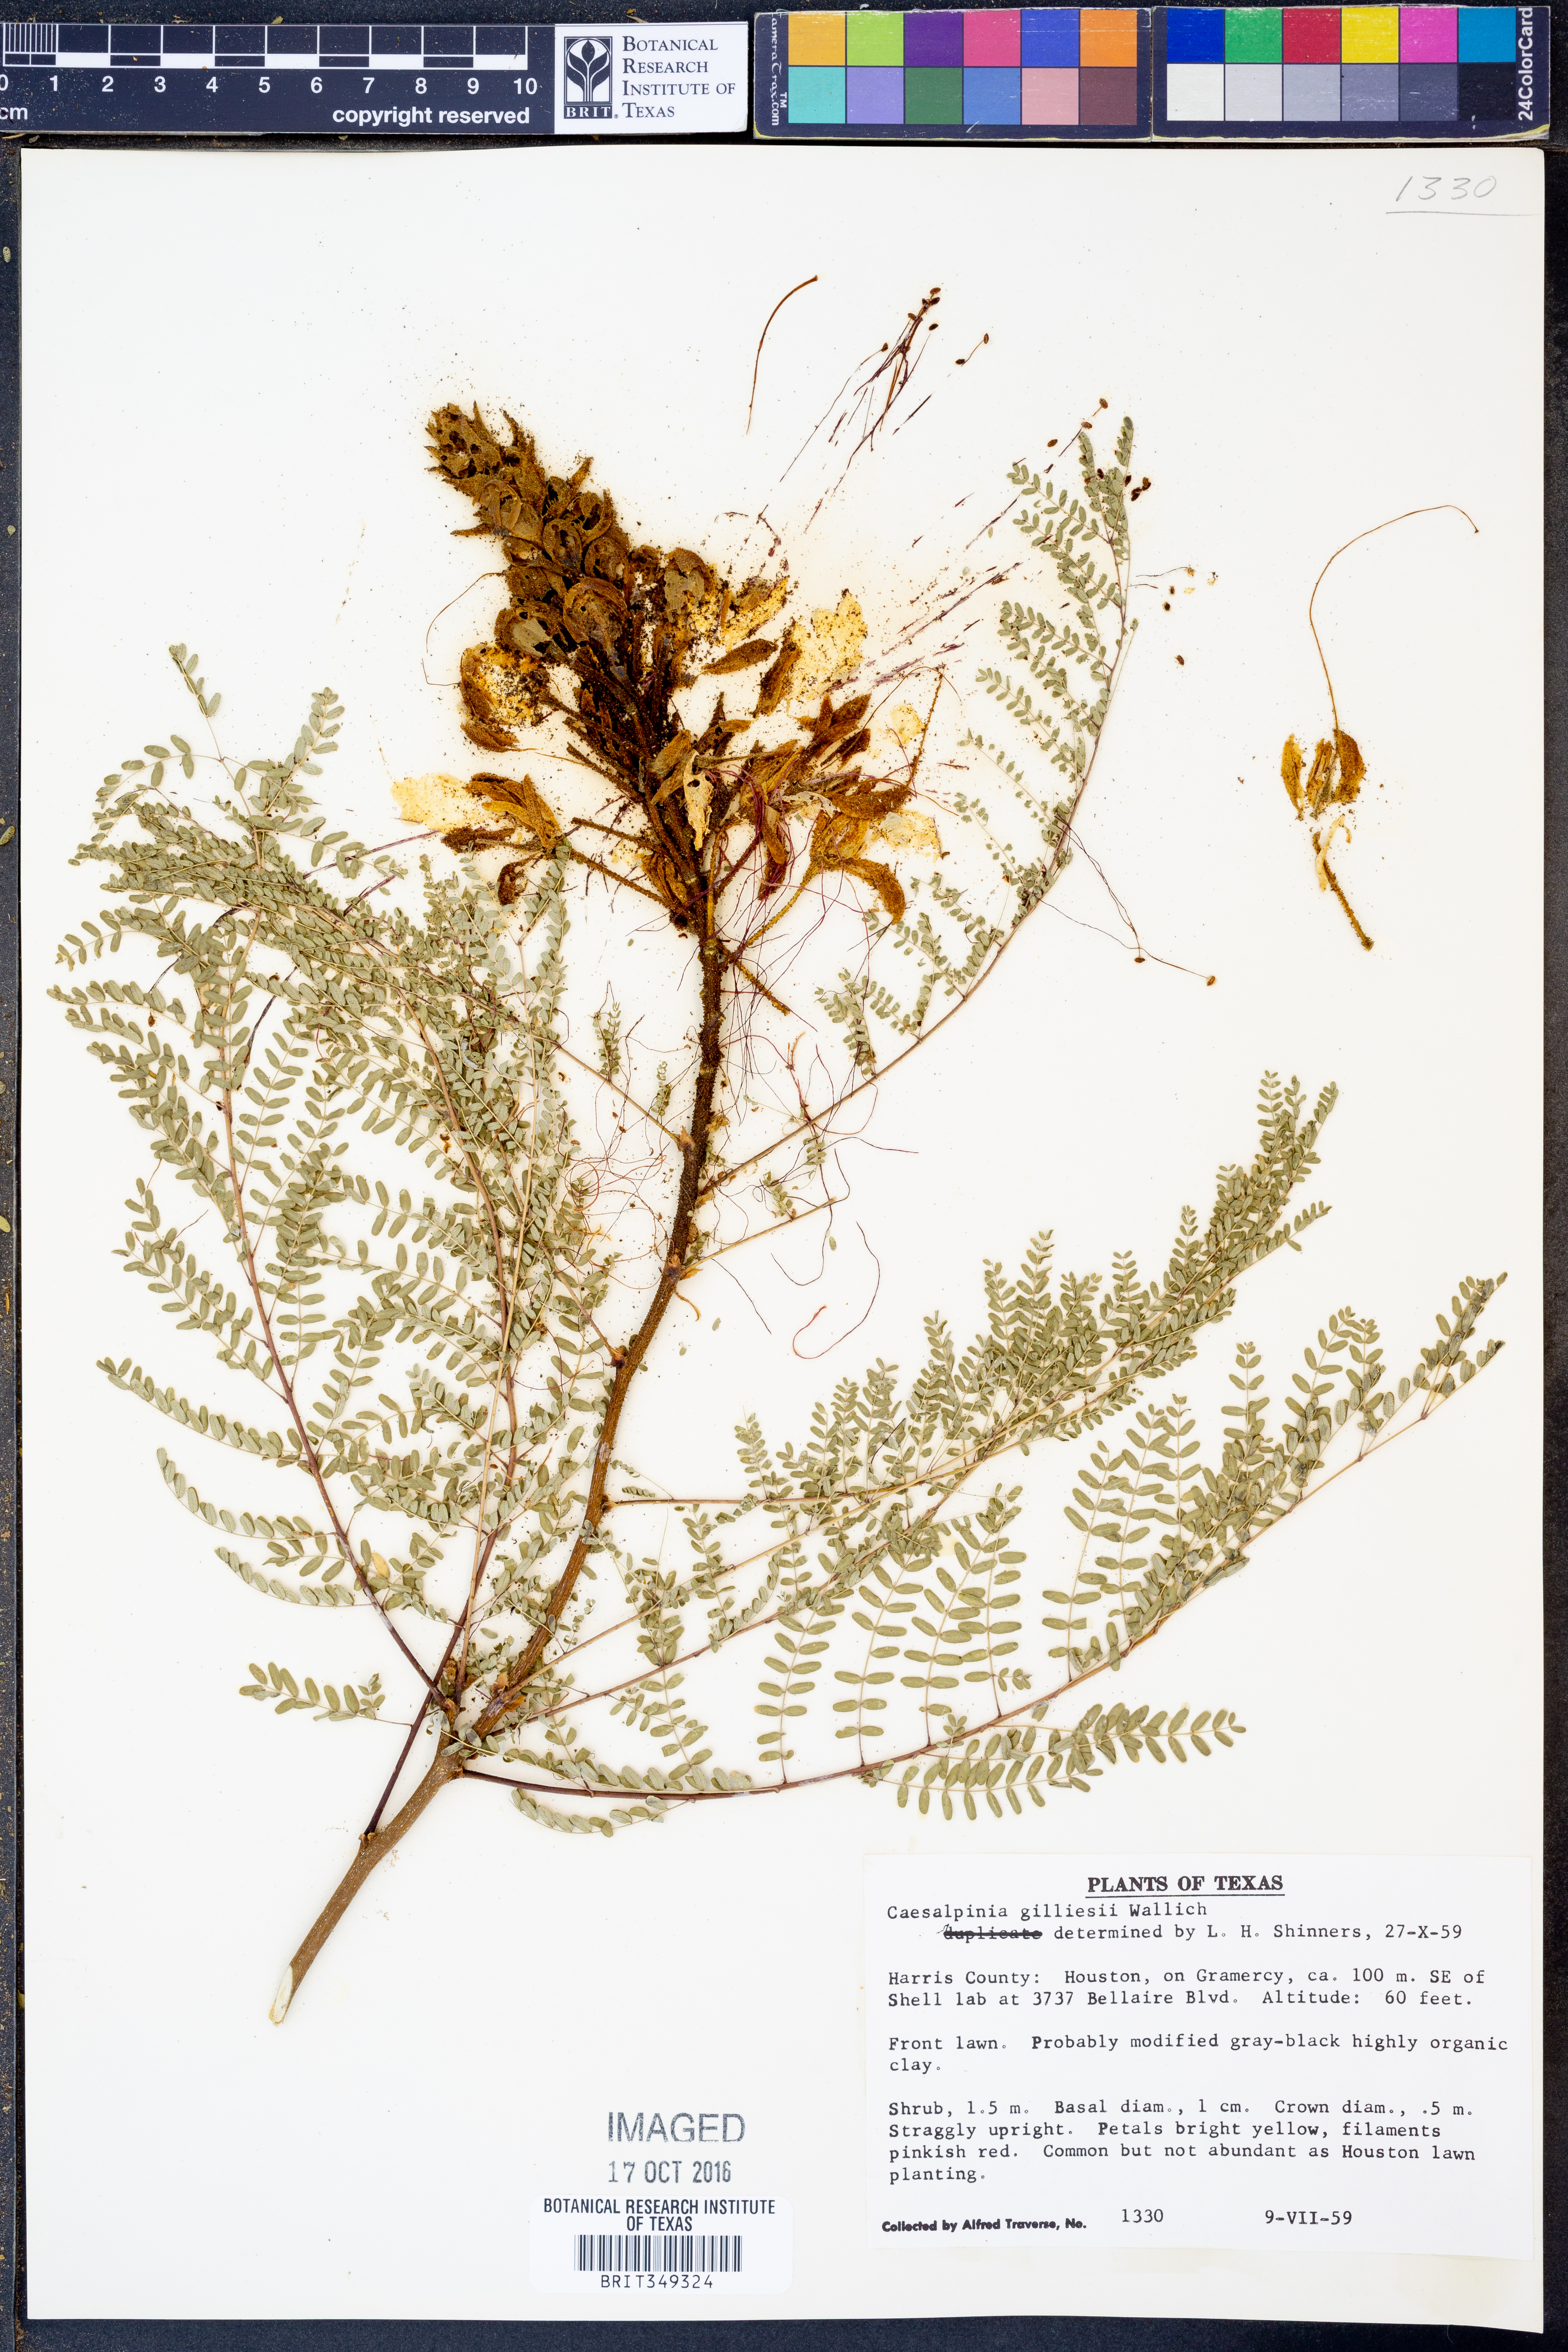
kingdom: Plantae
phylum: Tracheophyta
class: Magnoliopsida
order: Fabales
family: Fabaceae
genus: Erythrostemon
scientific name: Erythrostemon gilliesii
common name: Bird-of-paradise shrub
